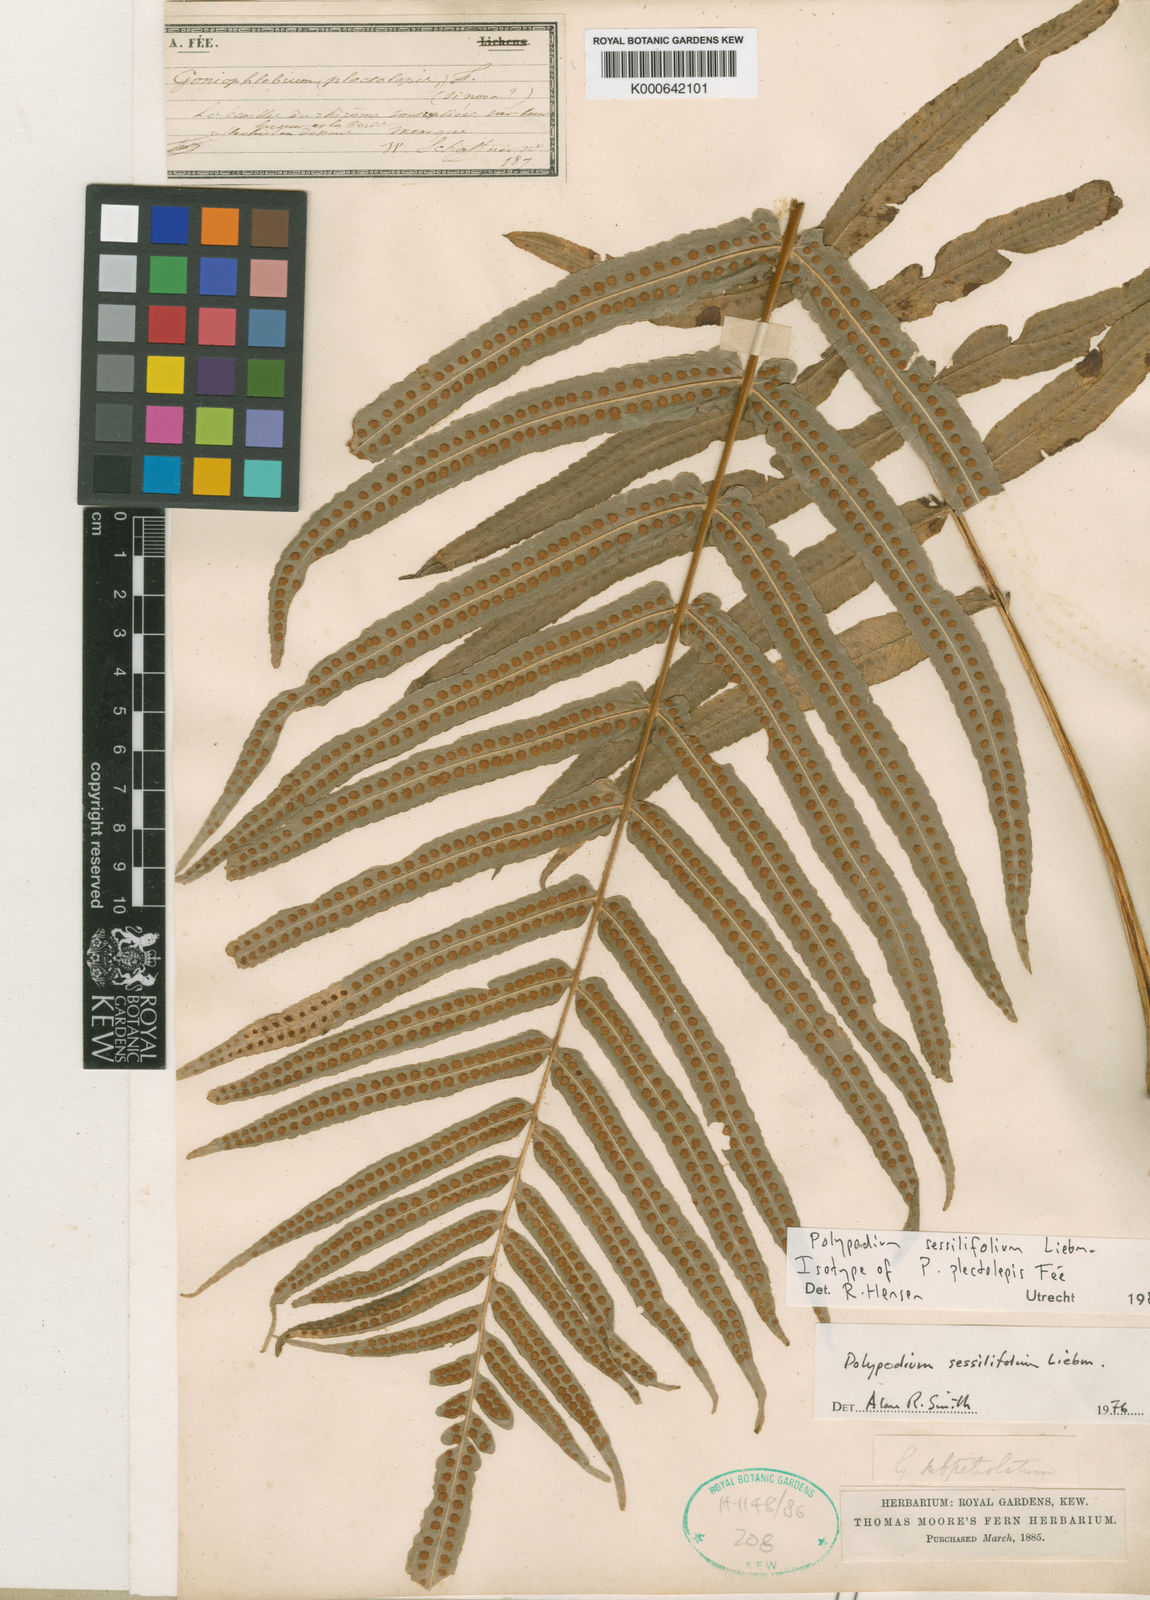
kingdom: Plantae
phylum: Tracheophyta
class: Polypodiopsida
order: Polypodiales
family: Polypodiaceae
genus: Serpocaulon
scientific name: Serpocaulon sessilifolium
